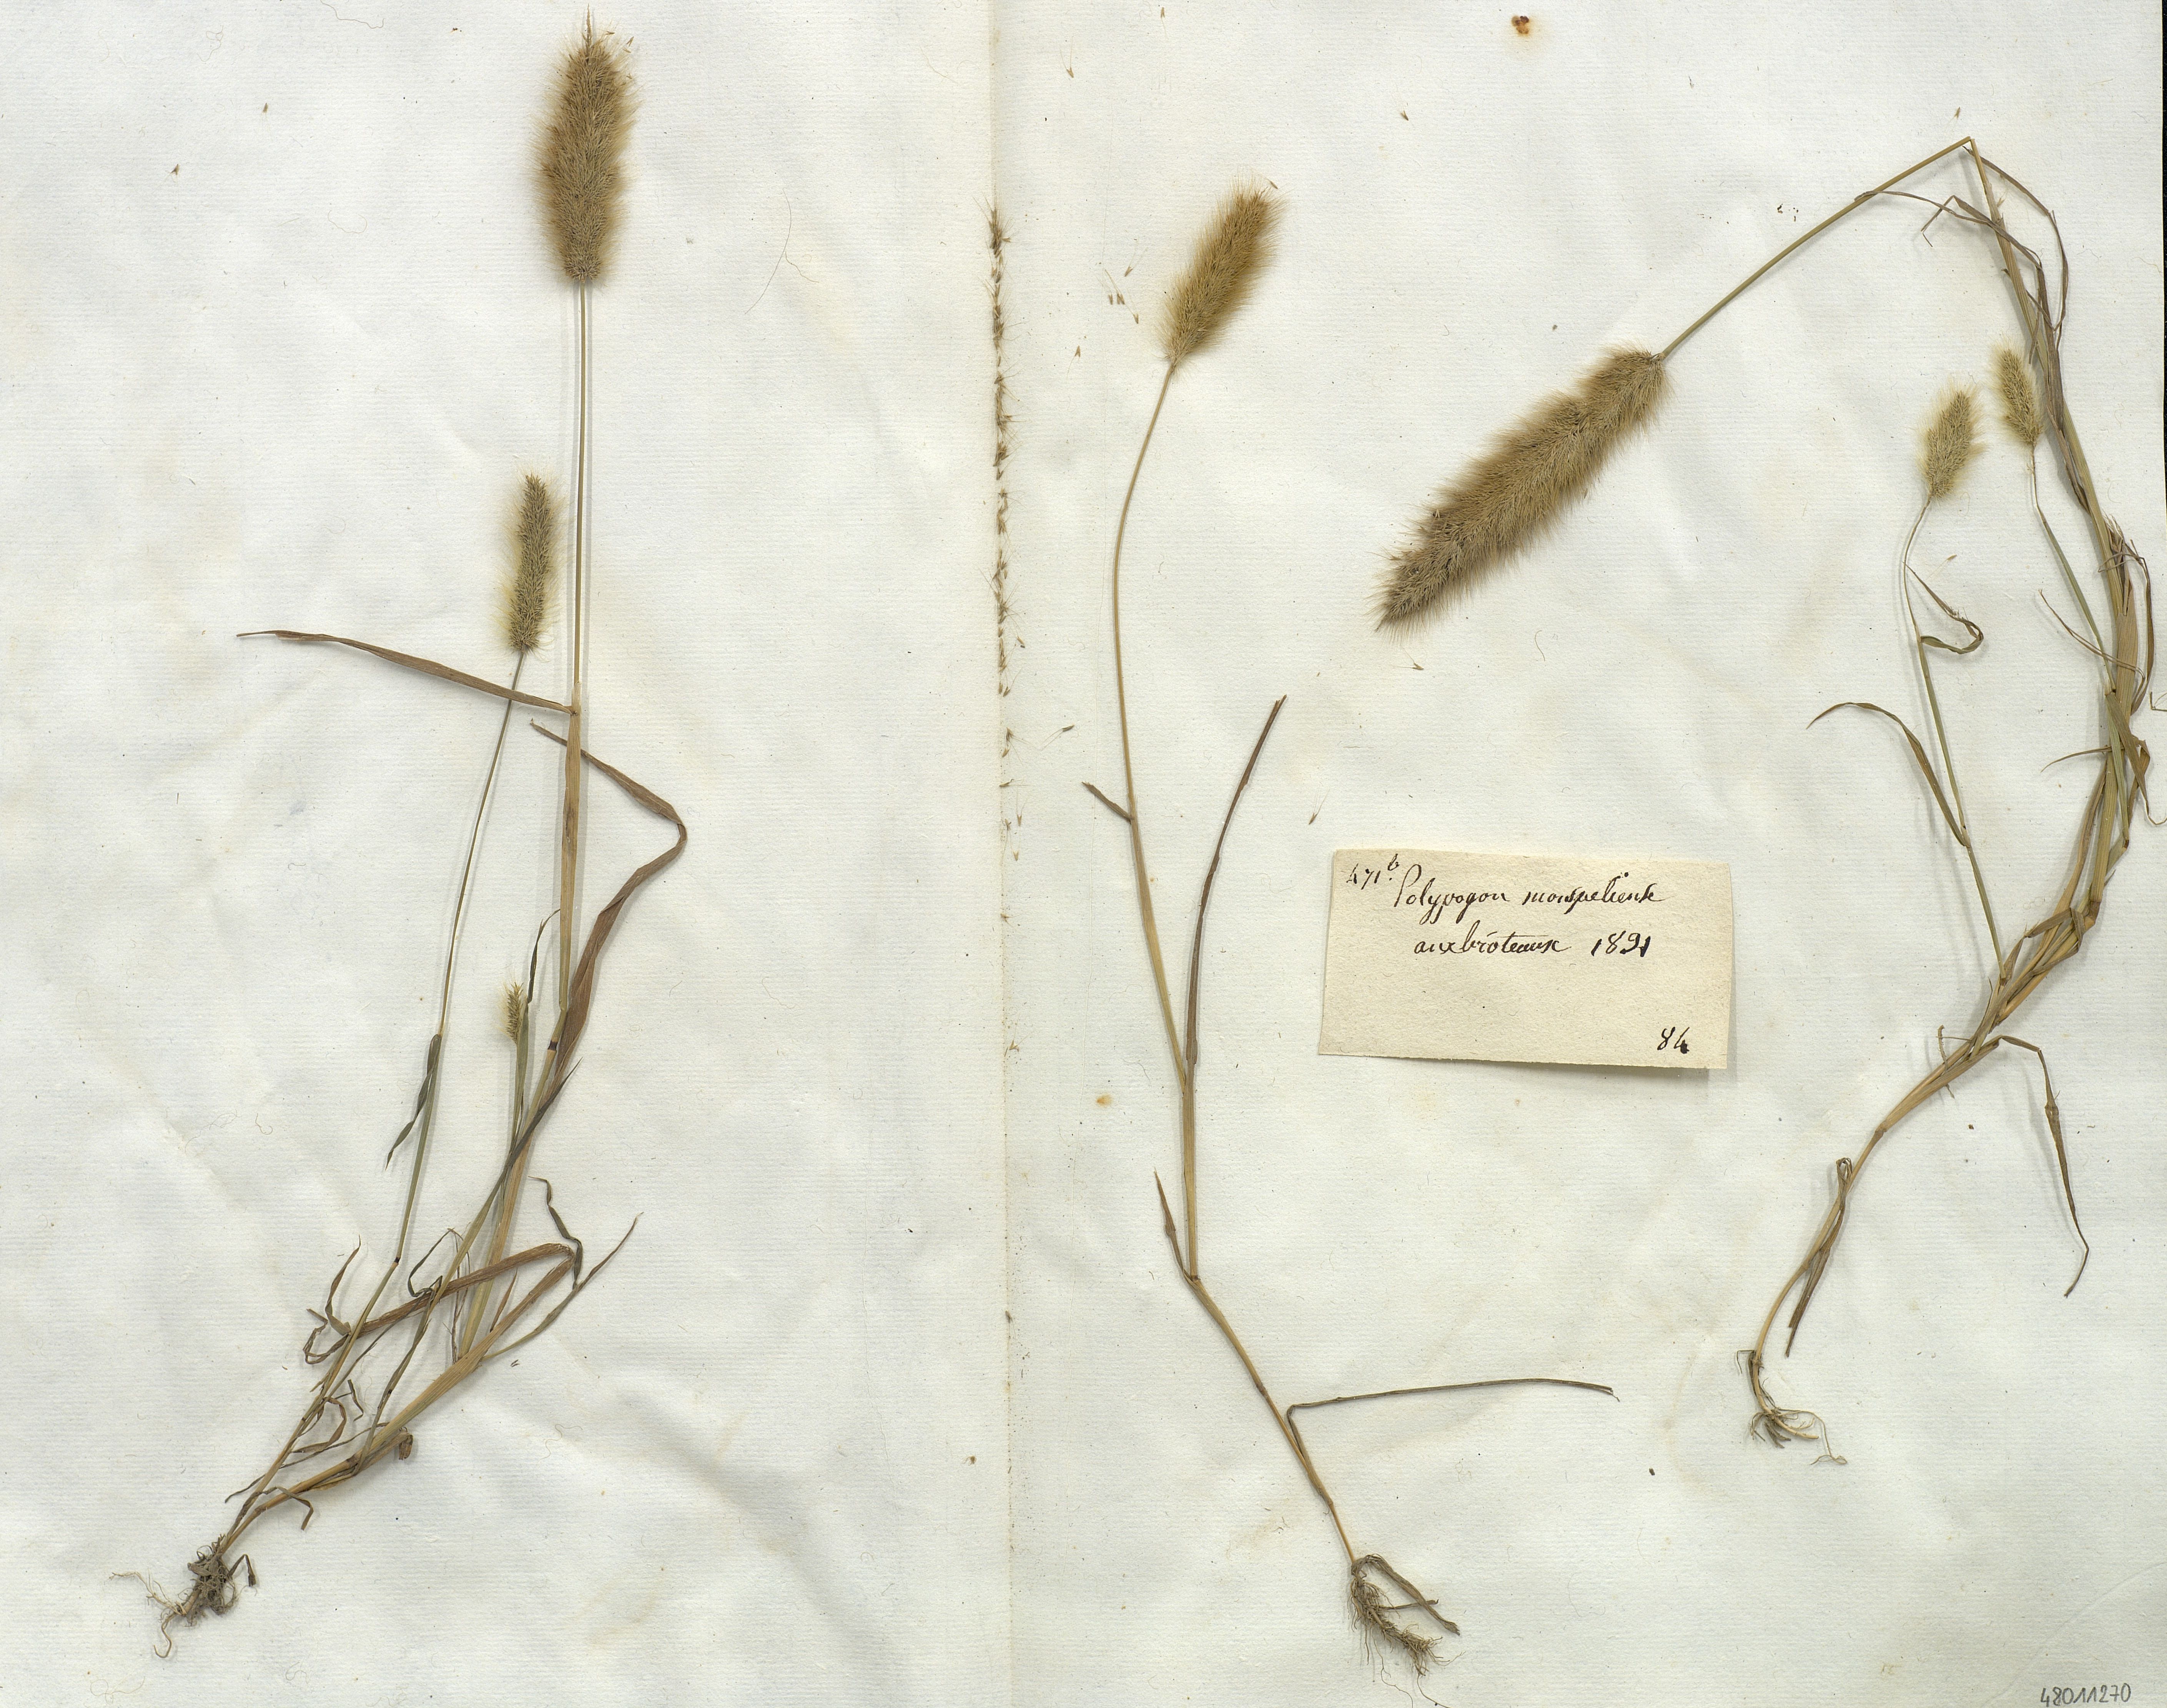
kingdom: Plantae
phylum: Tracheophyta
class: Liliopsida
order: Poales
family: Poaceae
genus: Polypogon
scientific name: Polypogon monspeliensis
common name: Annual rabbitsfoot grass
